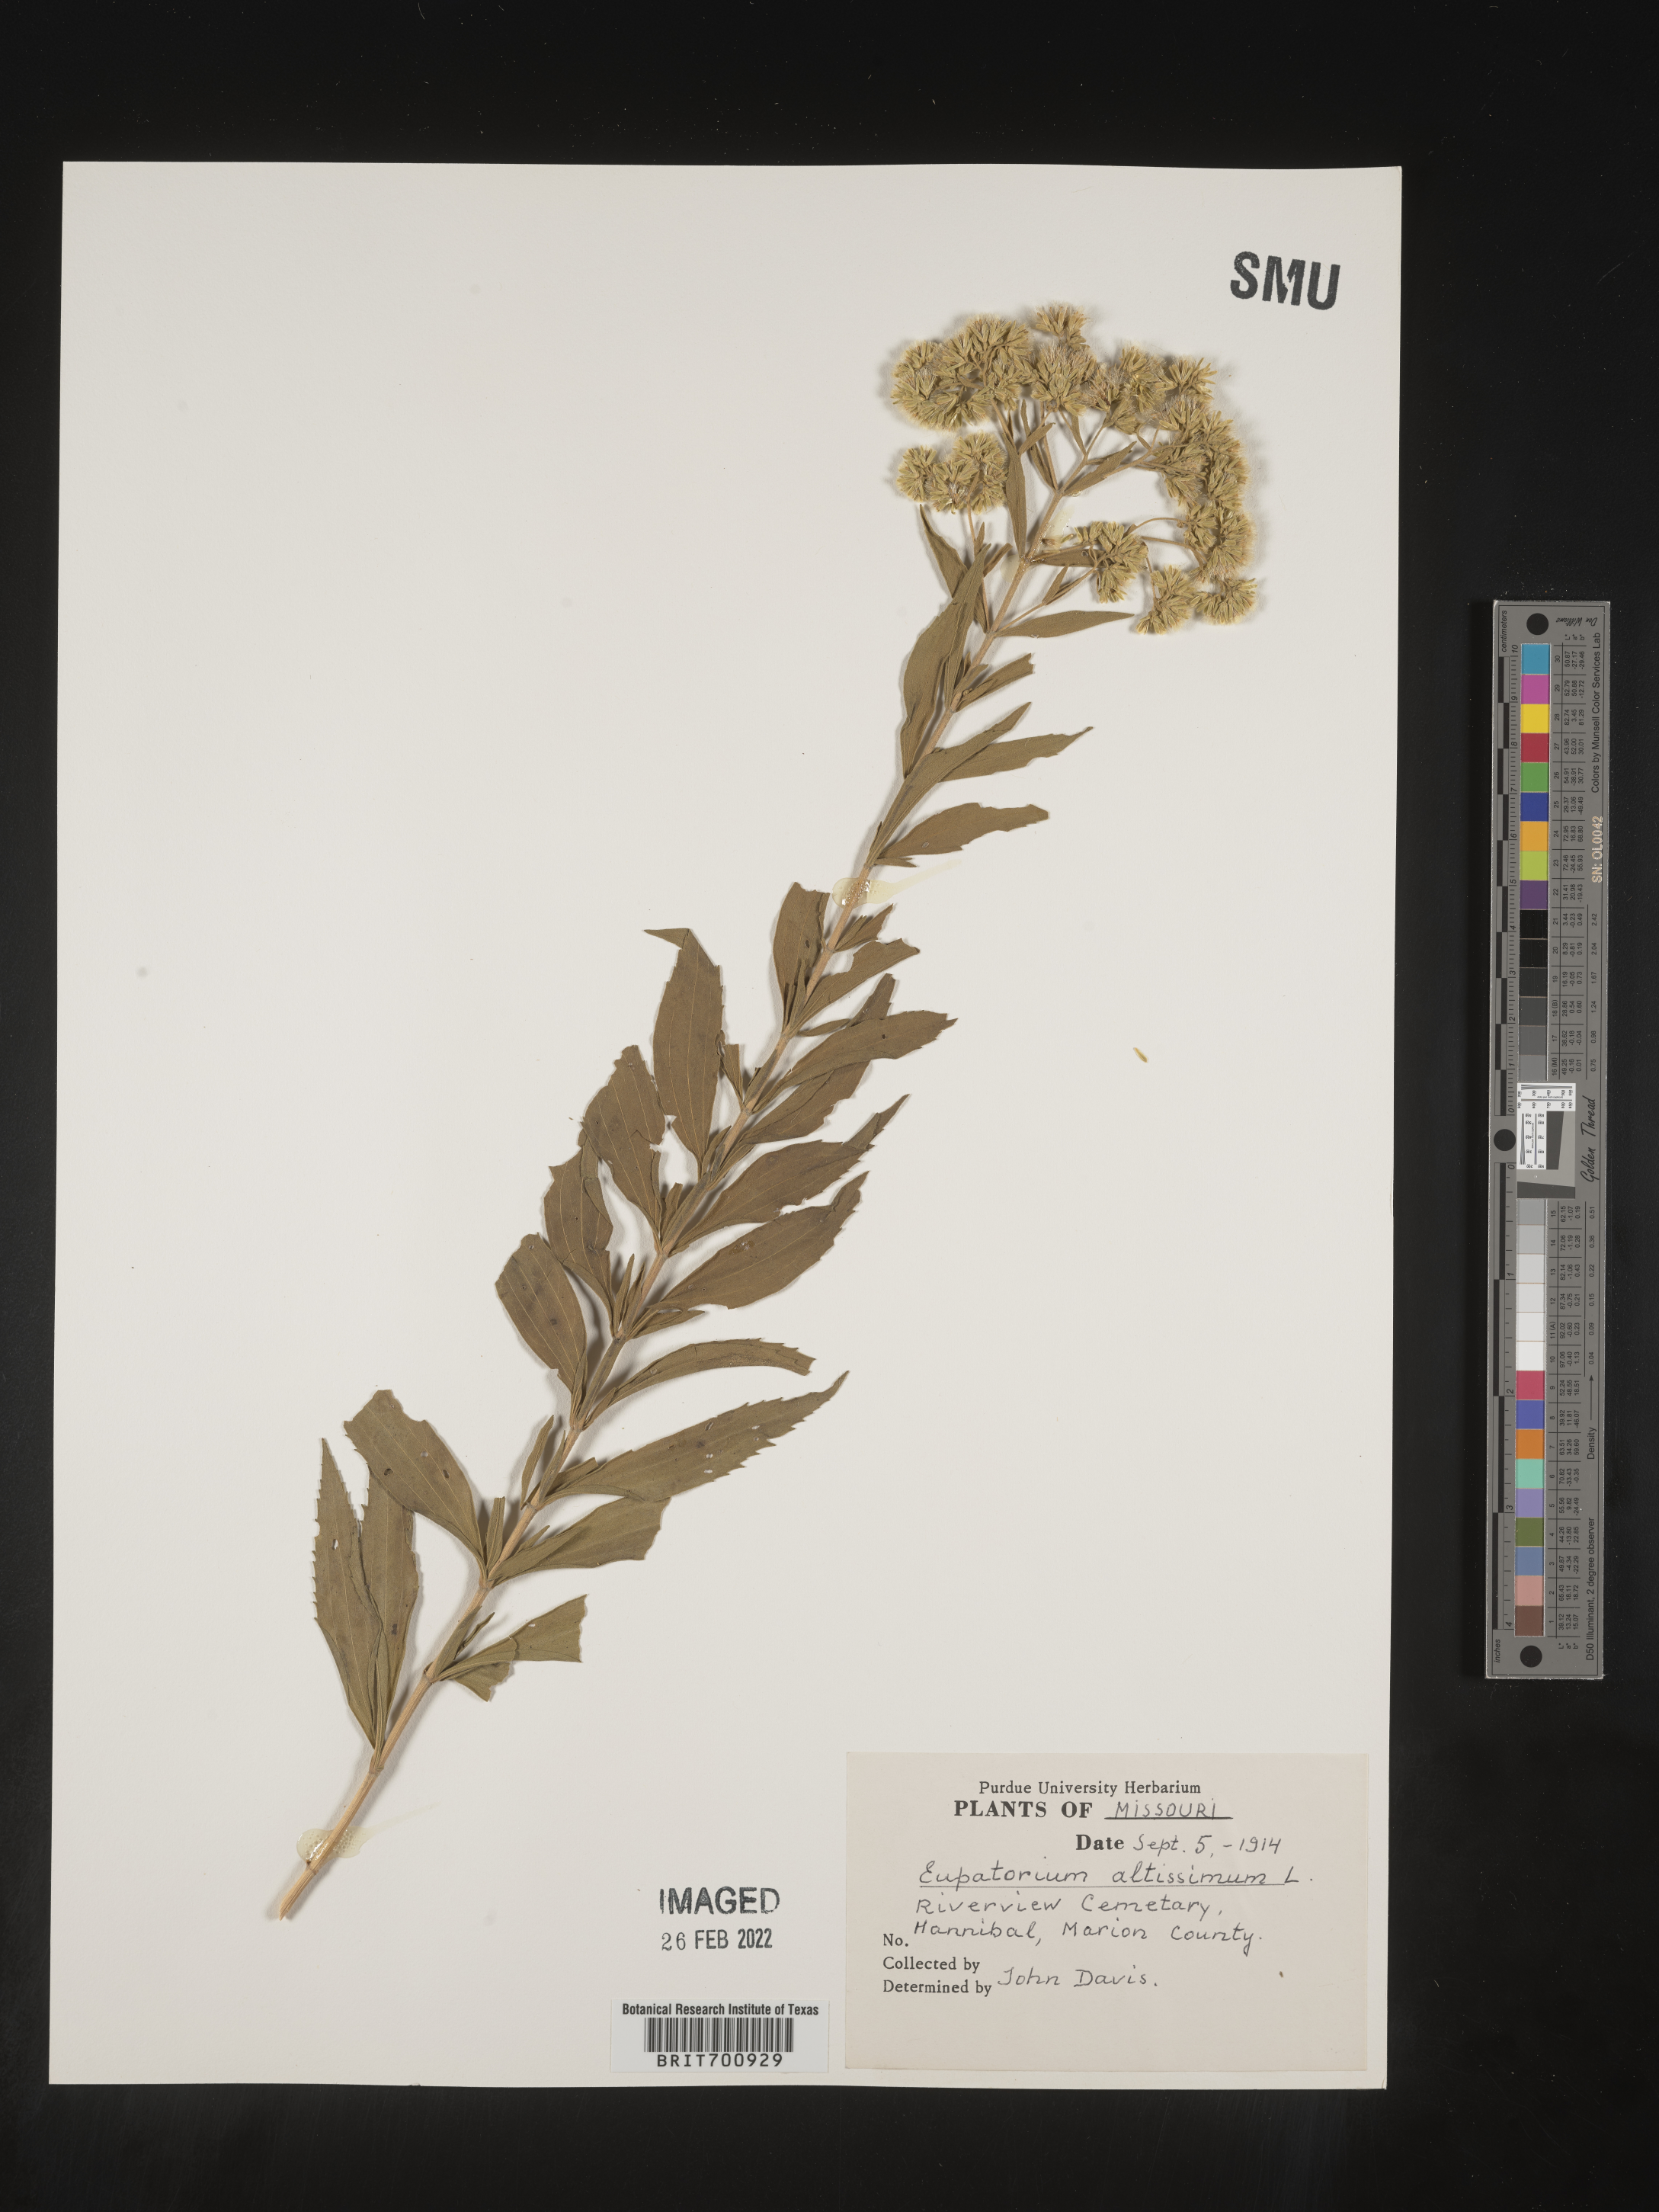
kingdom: Plantae
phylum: Tracheophyta
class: Magnoliopsida
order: Asterales
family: Asteraceae
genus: Eupatorium
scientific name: Eupatorium altissimum
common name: Tall thoroughwort
